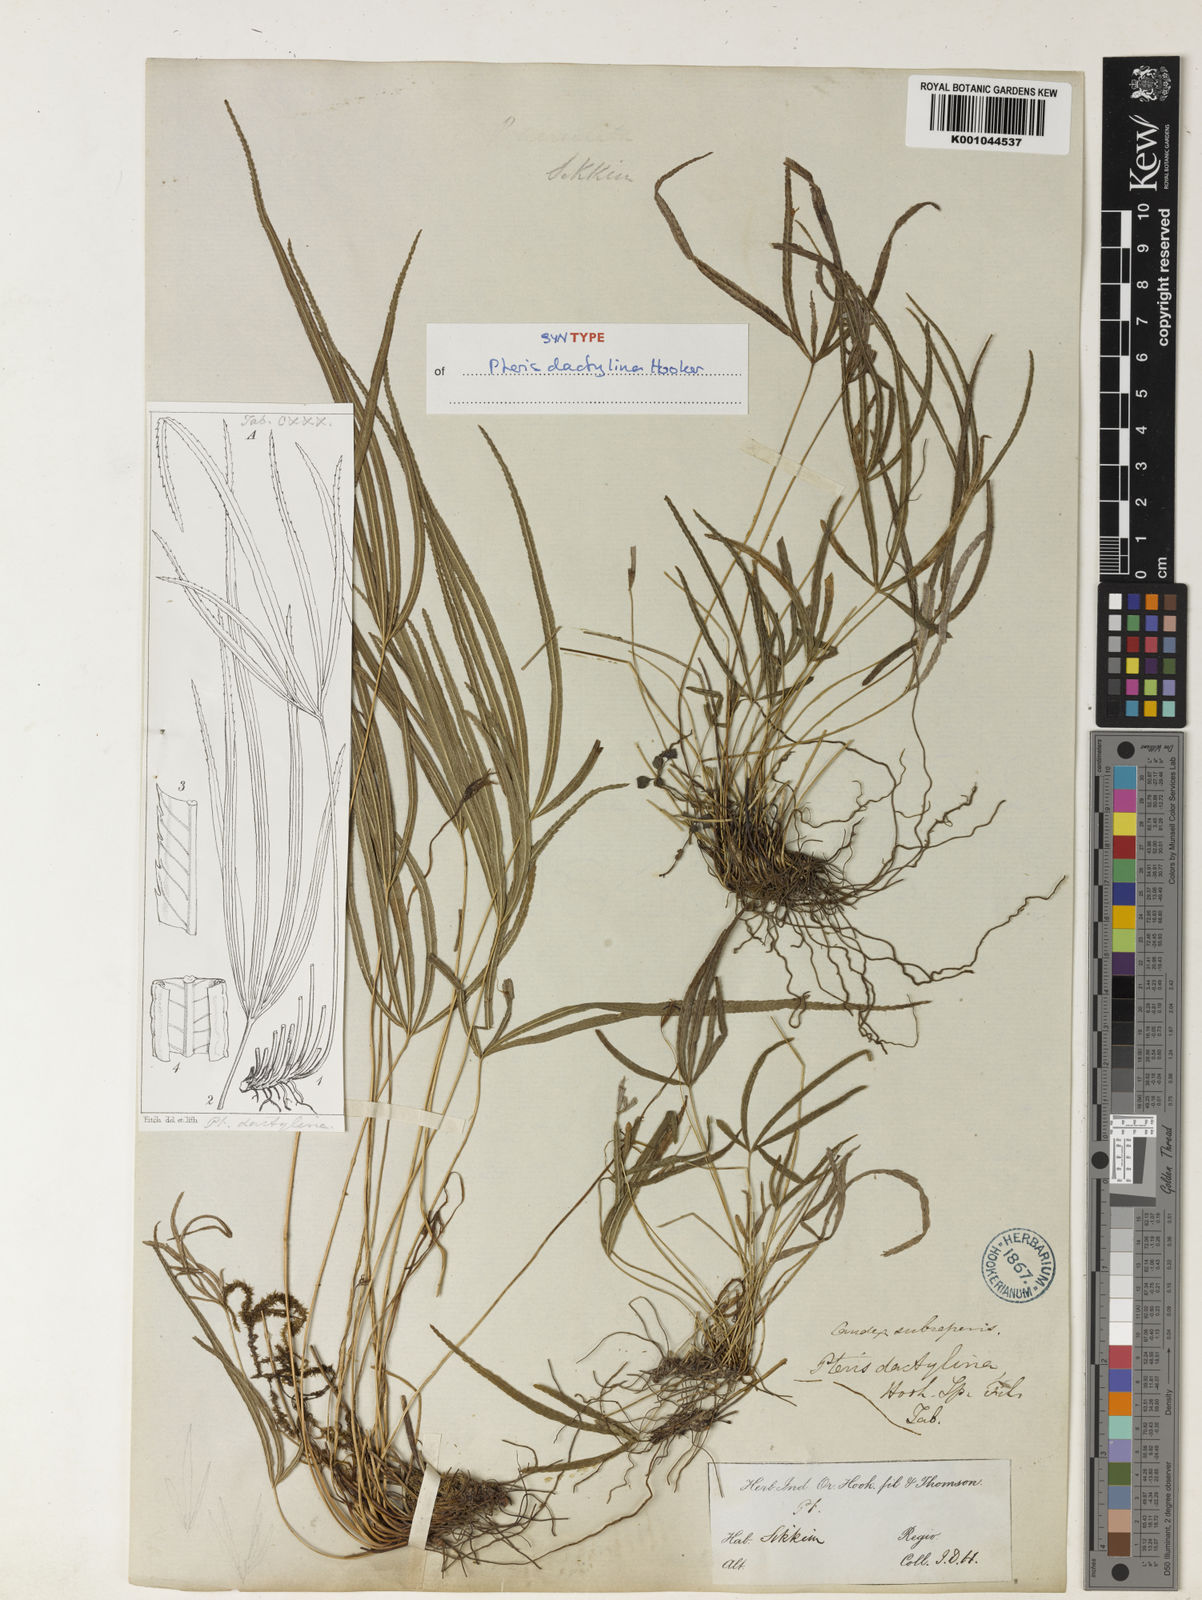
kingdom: Plantae
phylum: Tracheophyta
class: Polypodiopsida
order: Polypodiales
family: Pteridaceae
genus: Pteris
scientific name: Pteris dactylina
